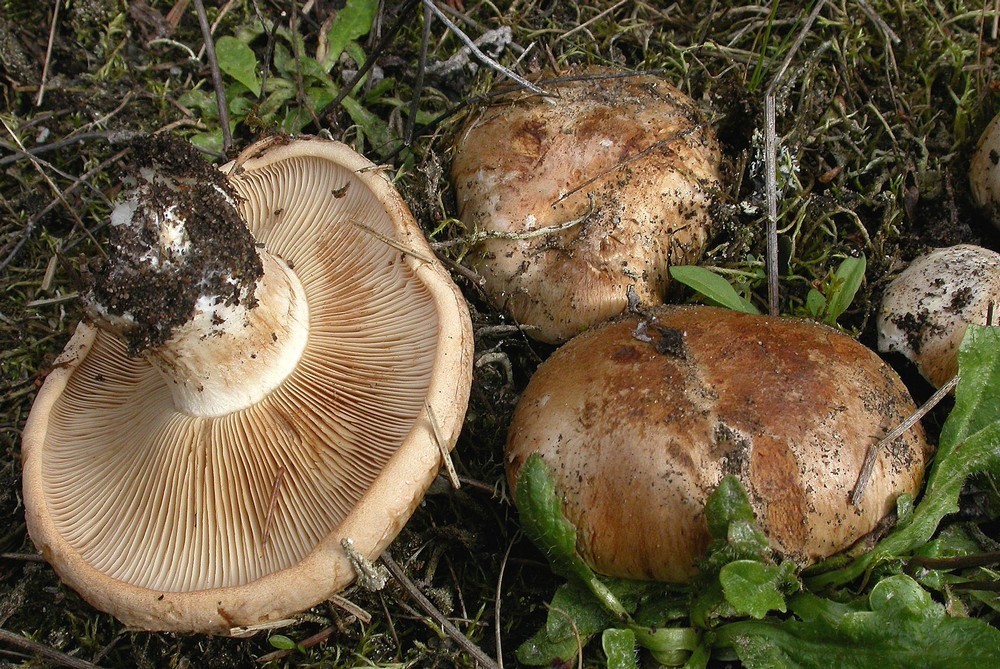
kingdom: Fungi
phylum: Basidiomycota
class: Agaricomycetes
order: Agaricales
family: Hymenogastraceae
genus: Hebeloma
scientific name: Hebeloma laterinum
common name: kakao-tåreblad
